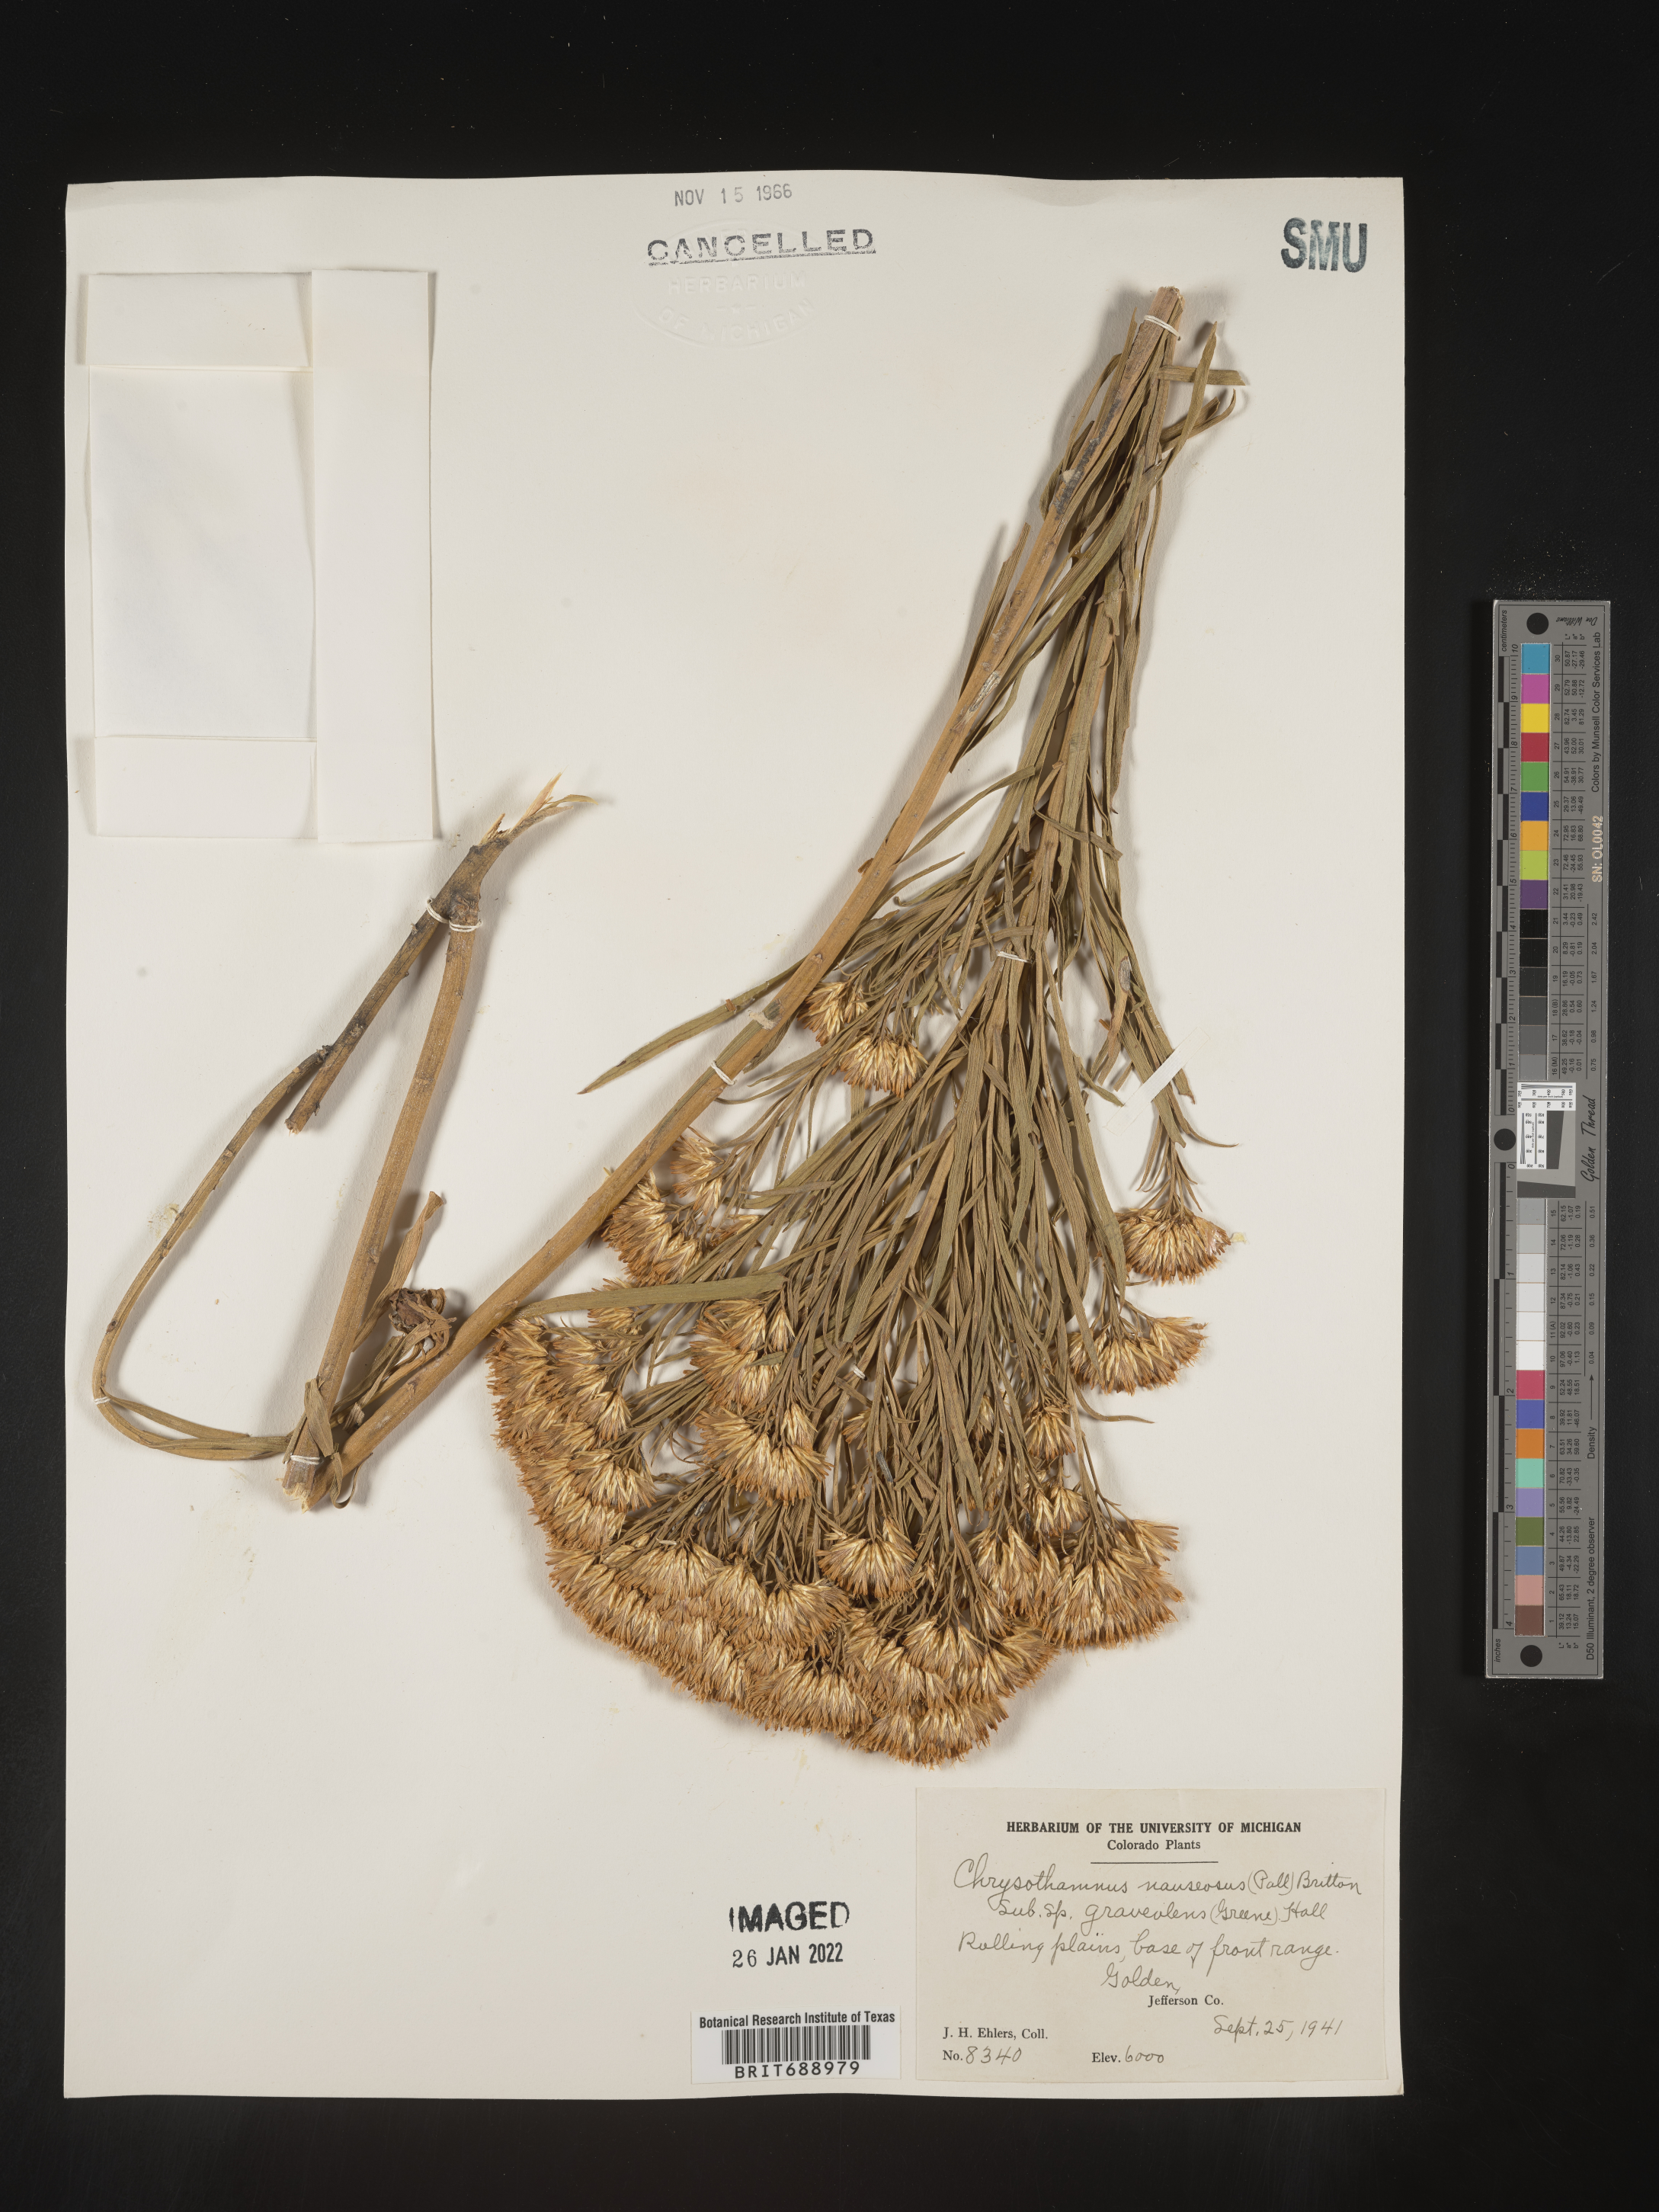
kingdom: Plantae
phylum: Tracheophyta
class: Magnoliopsida
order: Asterales
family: Asteraceae
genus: Ericameria
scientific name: Ericameria nauseosa
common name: Rubber rabbitbrush
